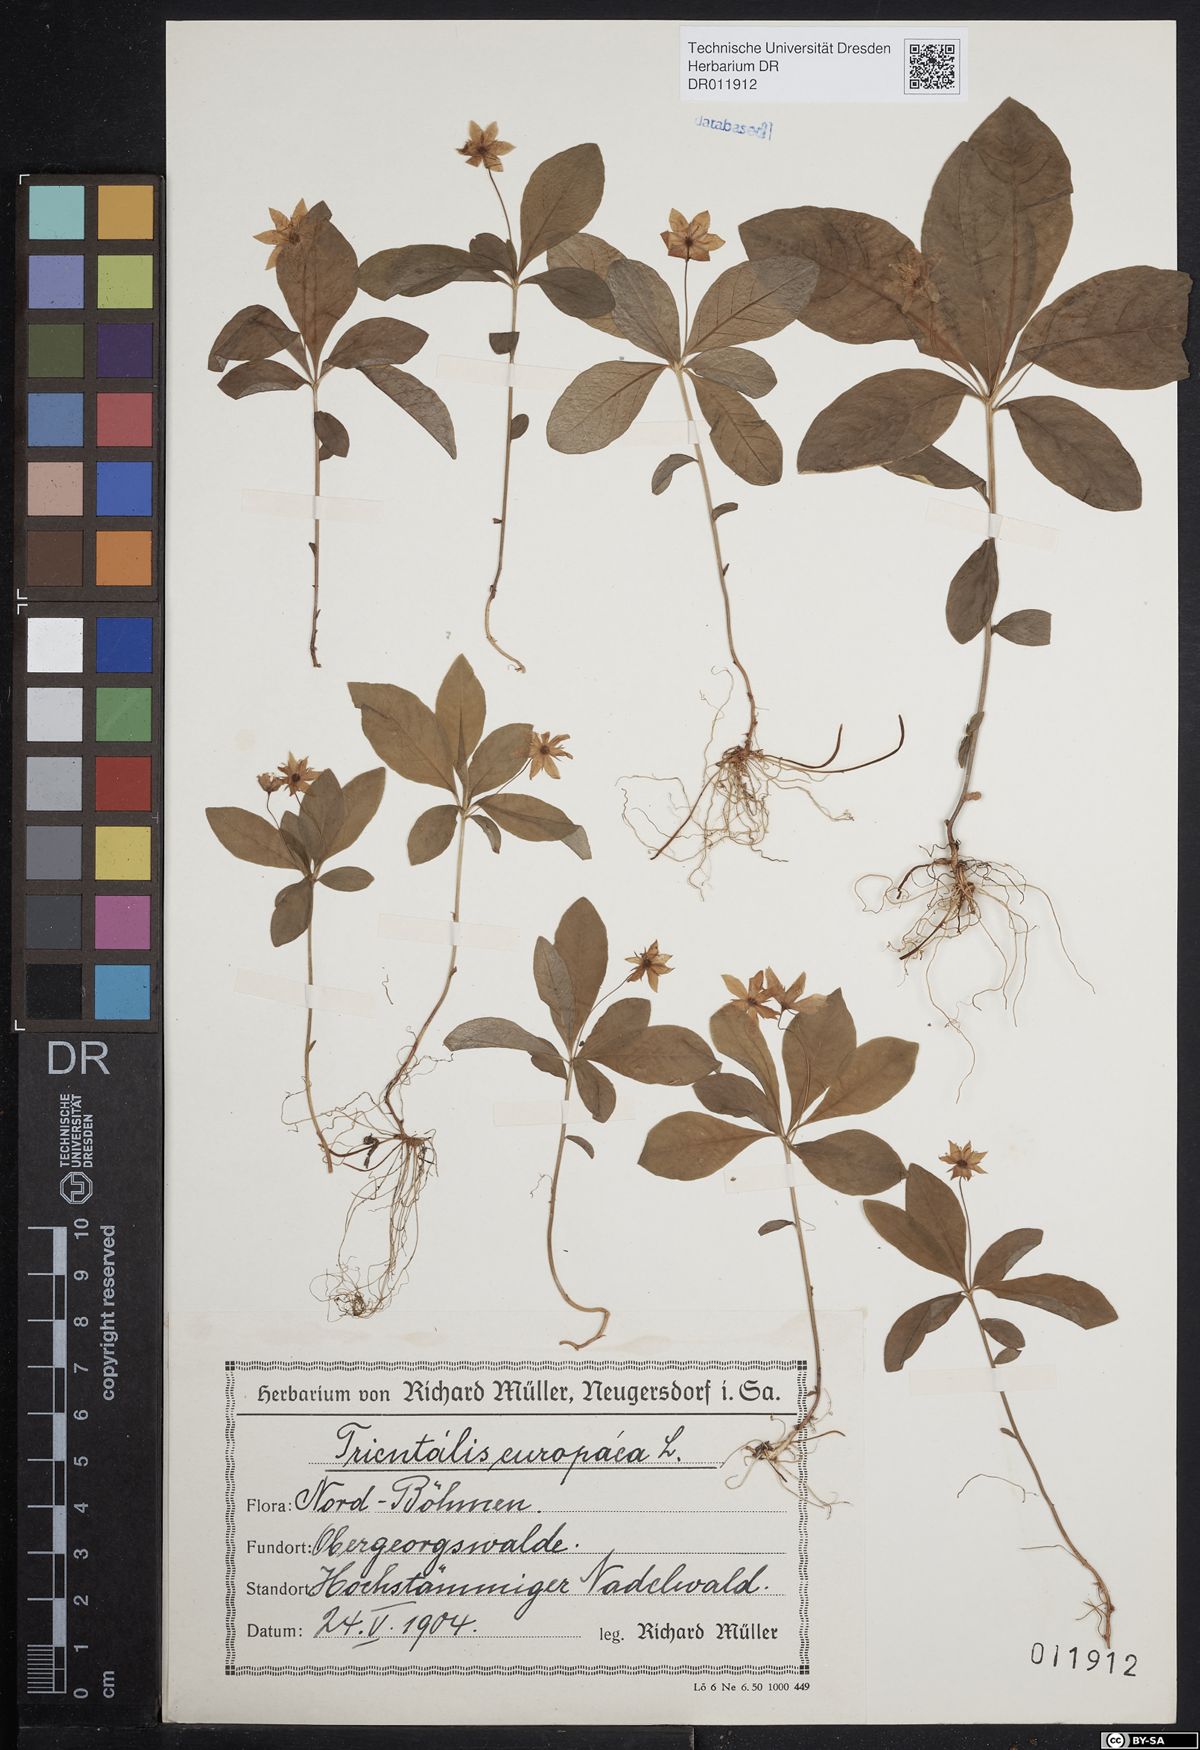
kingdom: Plantae
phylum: Tracheophyta
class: Magnoliopsida
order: Ericales
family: Primulaceae
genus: Lysimachia
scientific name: Lysimachia europaea
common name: Arctic starflower
